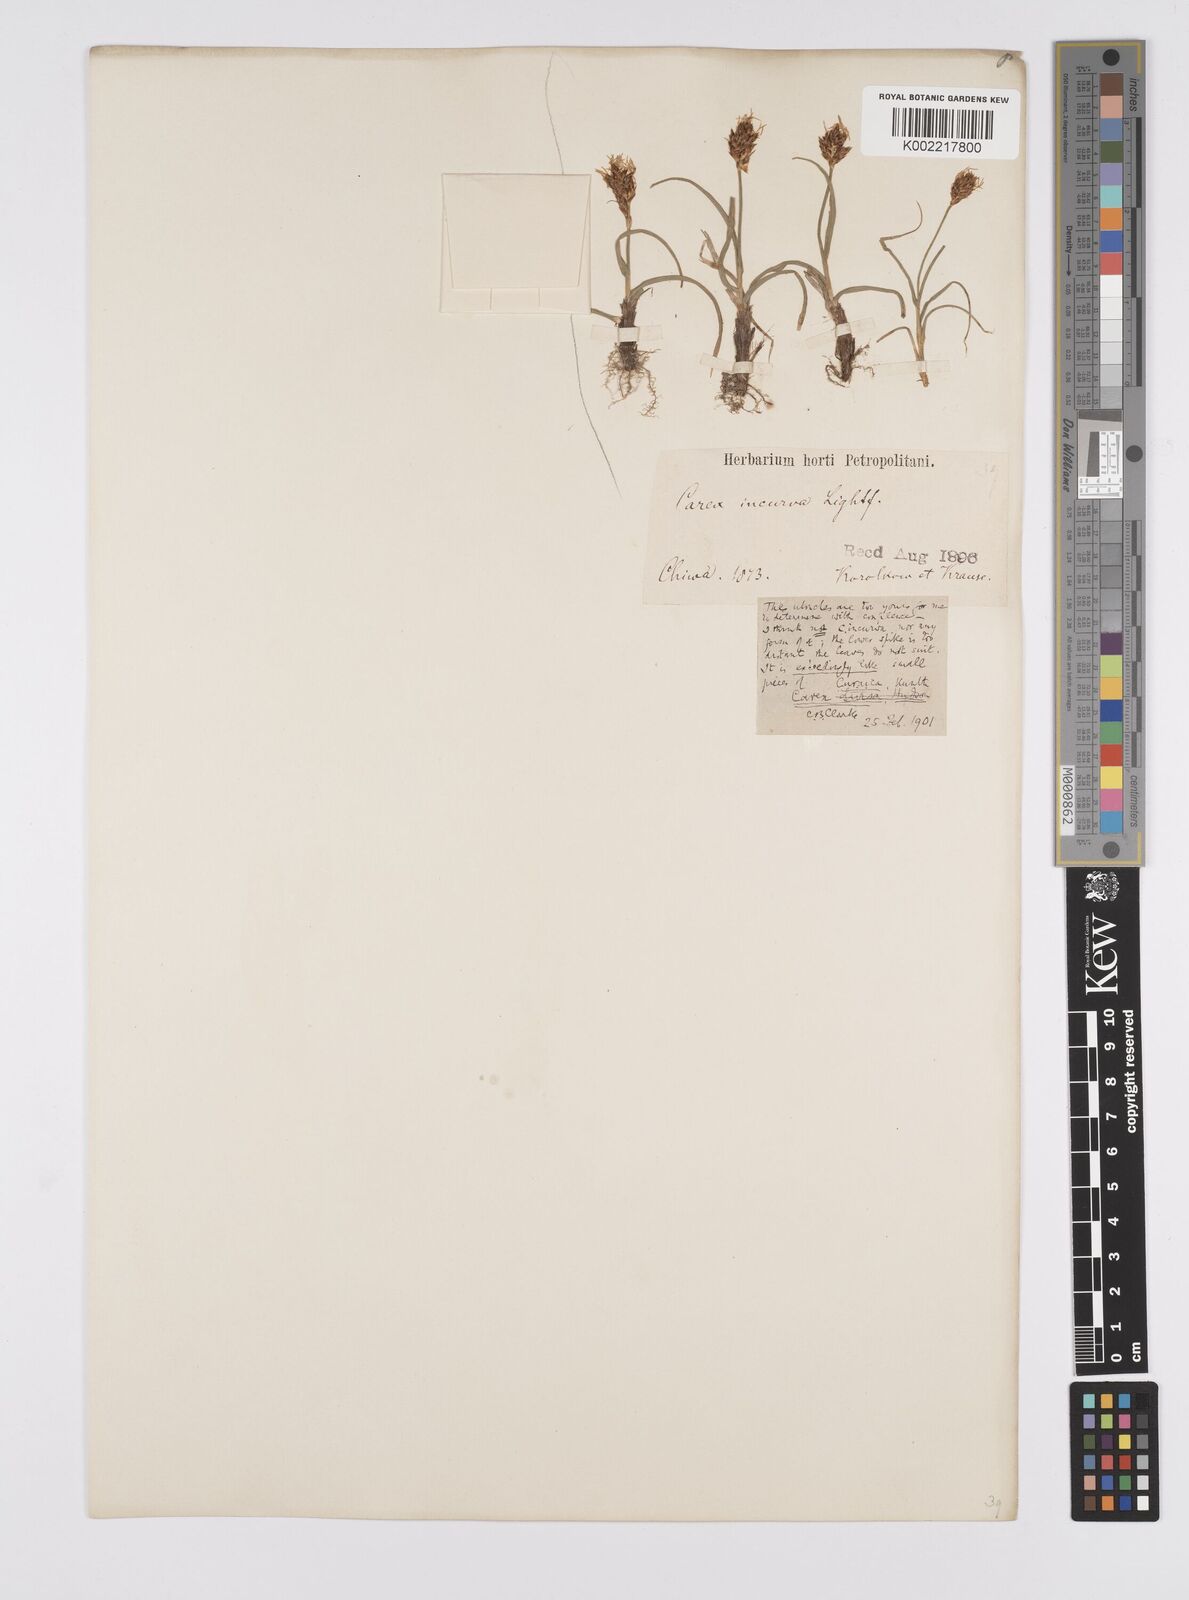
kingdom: Plantae
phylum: Tracheophyta
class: Liliopsida
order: Poales
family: Cyperaceae
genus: Carex
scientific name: Carex curaica
